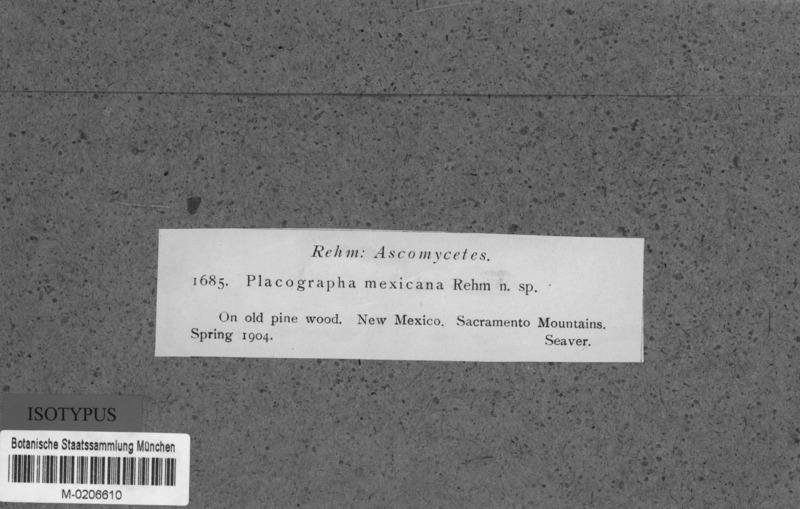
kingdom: Fungi
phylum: Ascomycota
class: Lecanoromycetes
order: Baeomycetales
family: Xylographaceae
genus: Lithographa
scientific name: Lithographa
